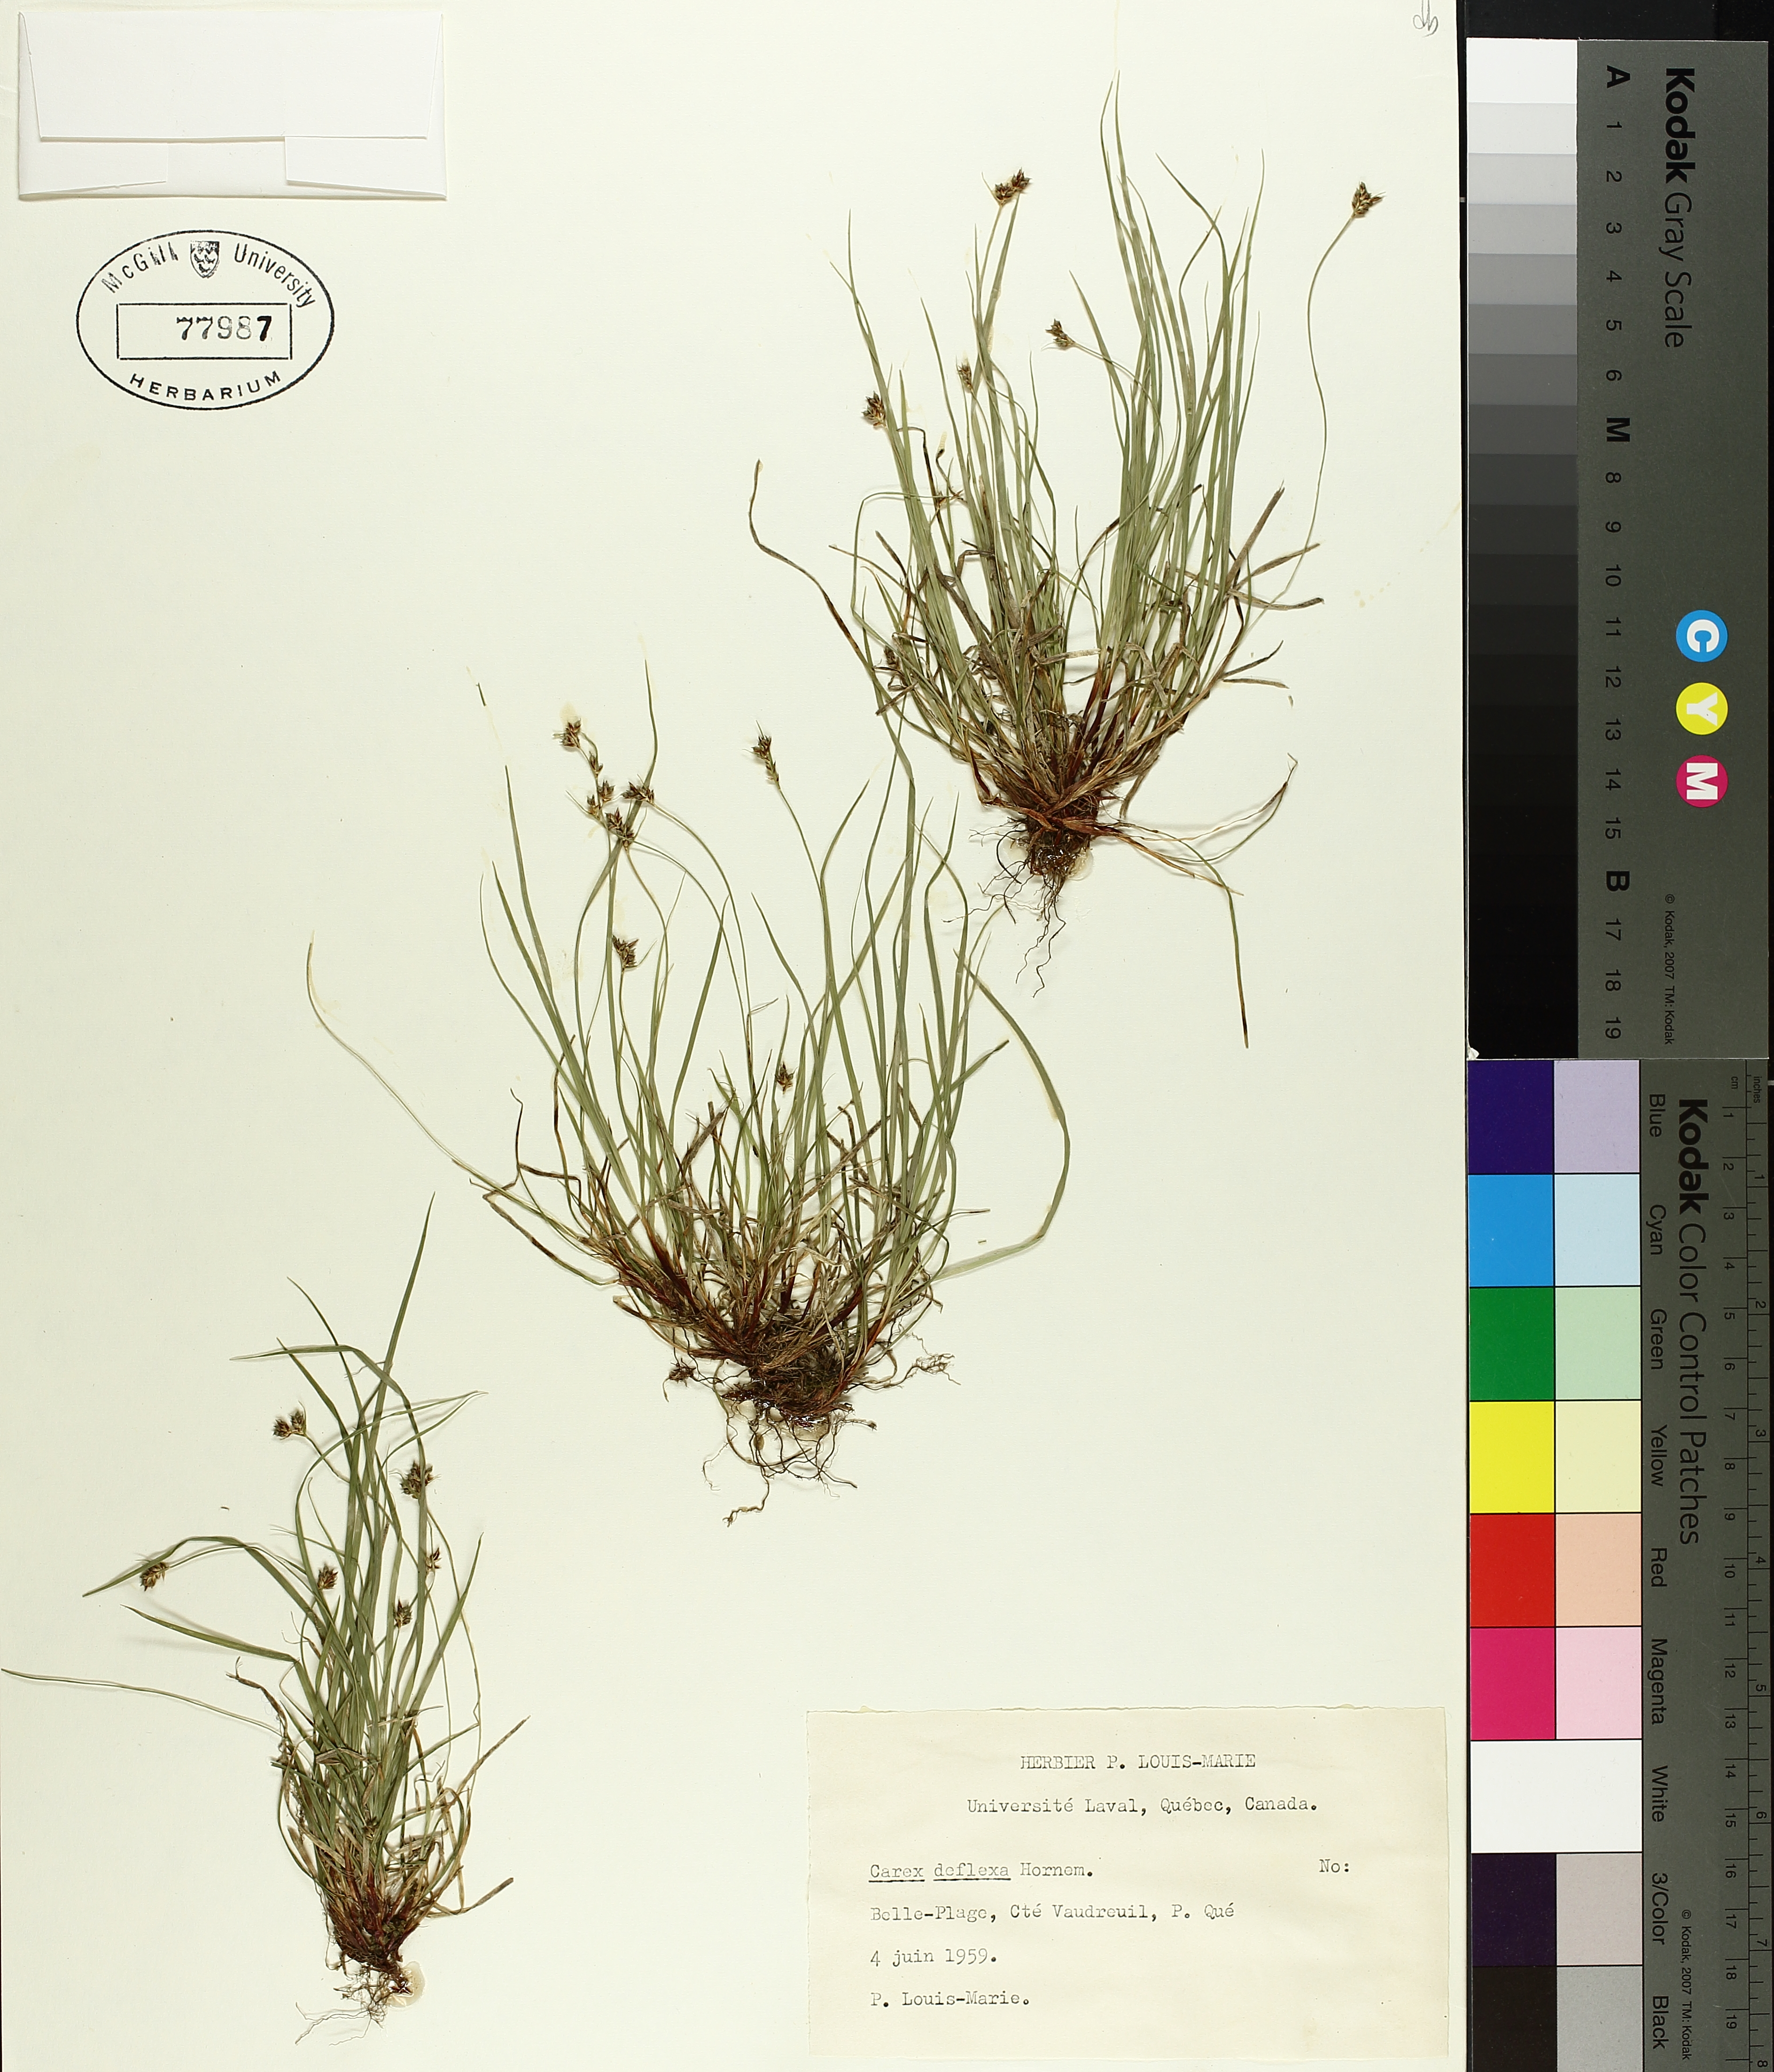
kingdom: Plantae
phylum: Tracheophyta
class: Liliopsida
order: Poales
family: Cyperaceae
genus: Carex
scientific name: Carex deflexa
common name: Bent northern sedge
